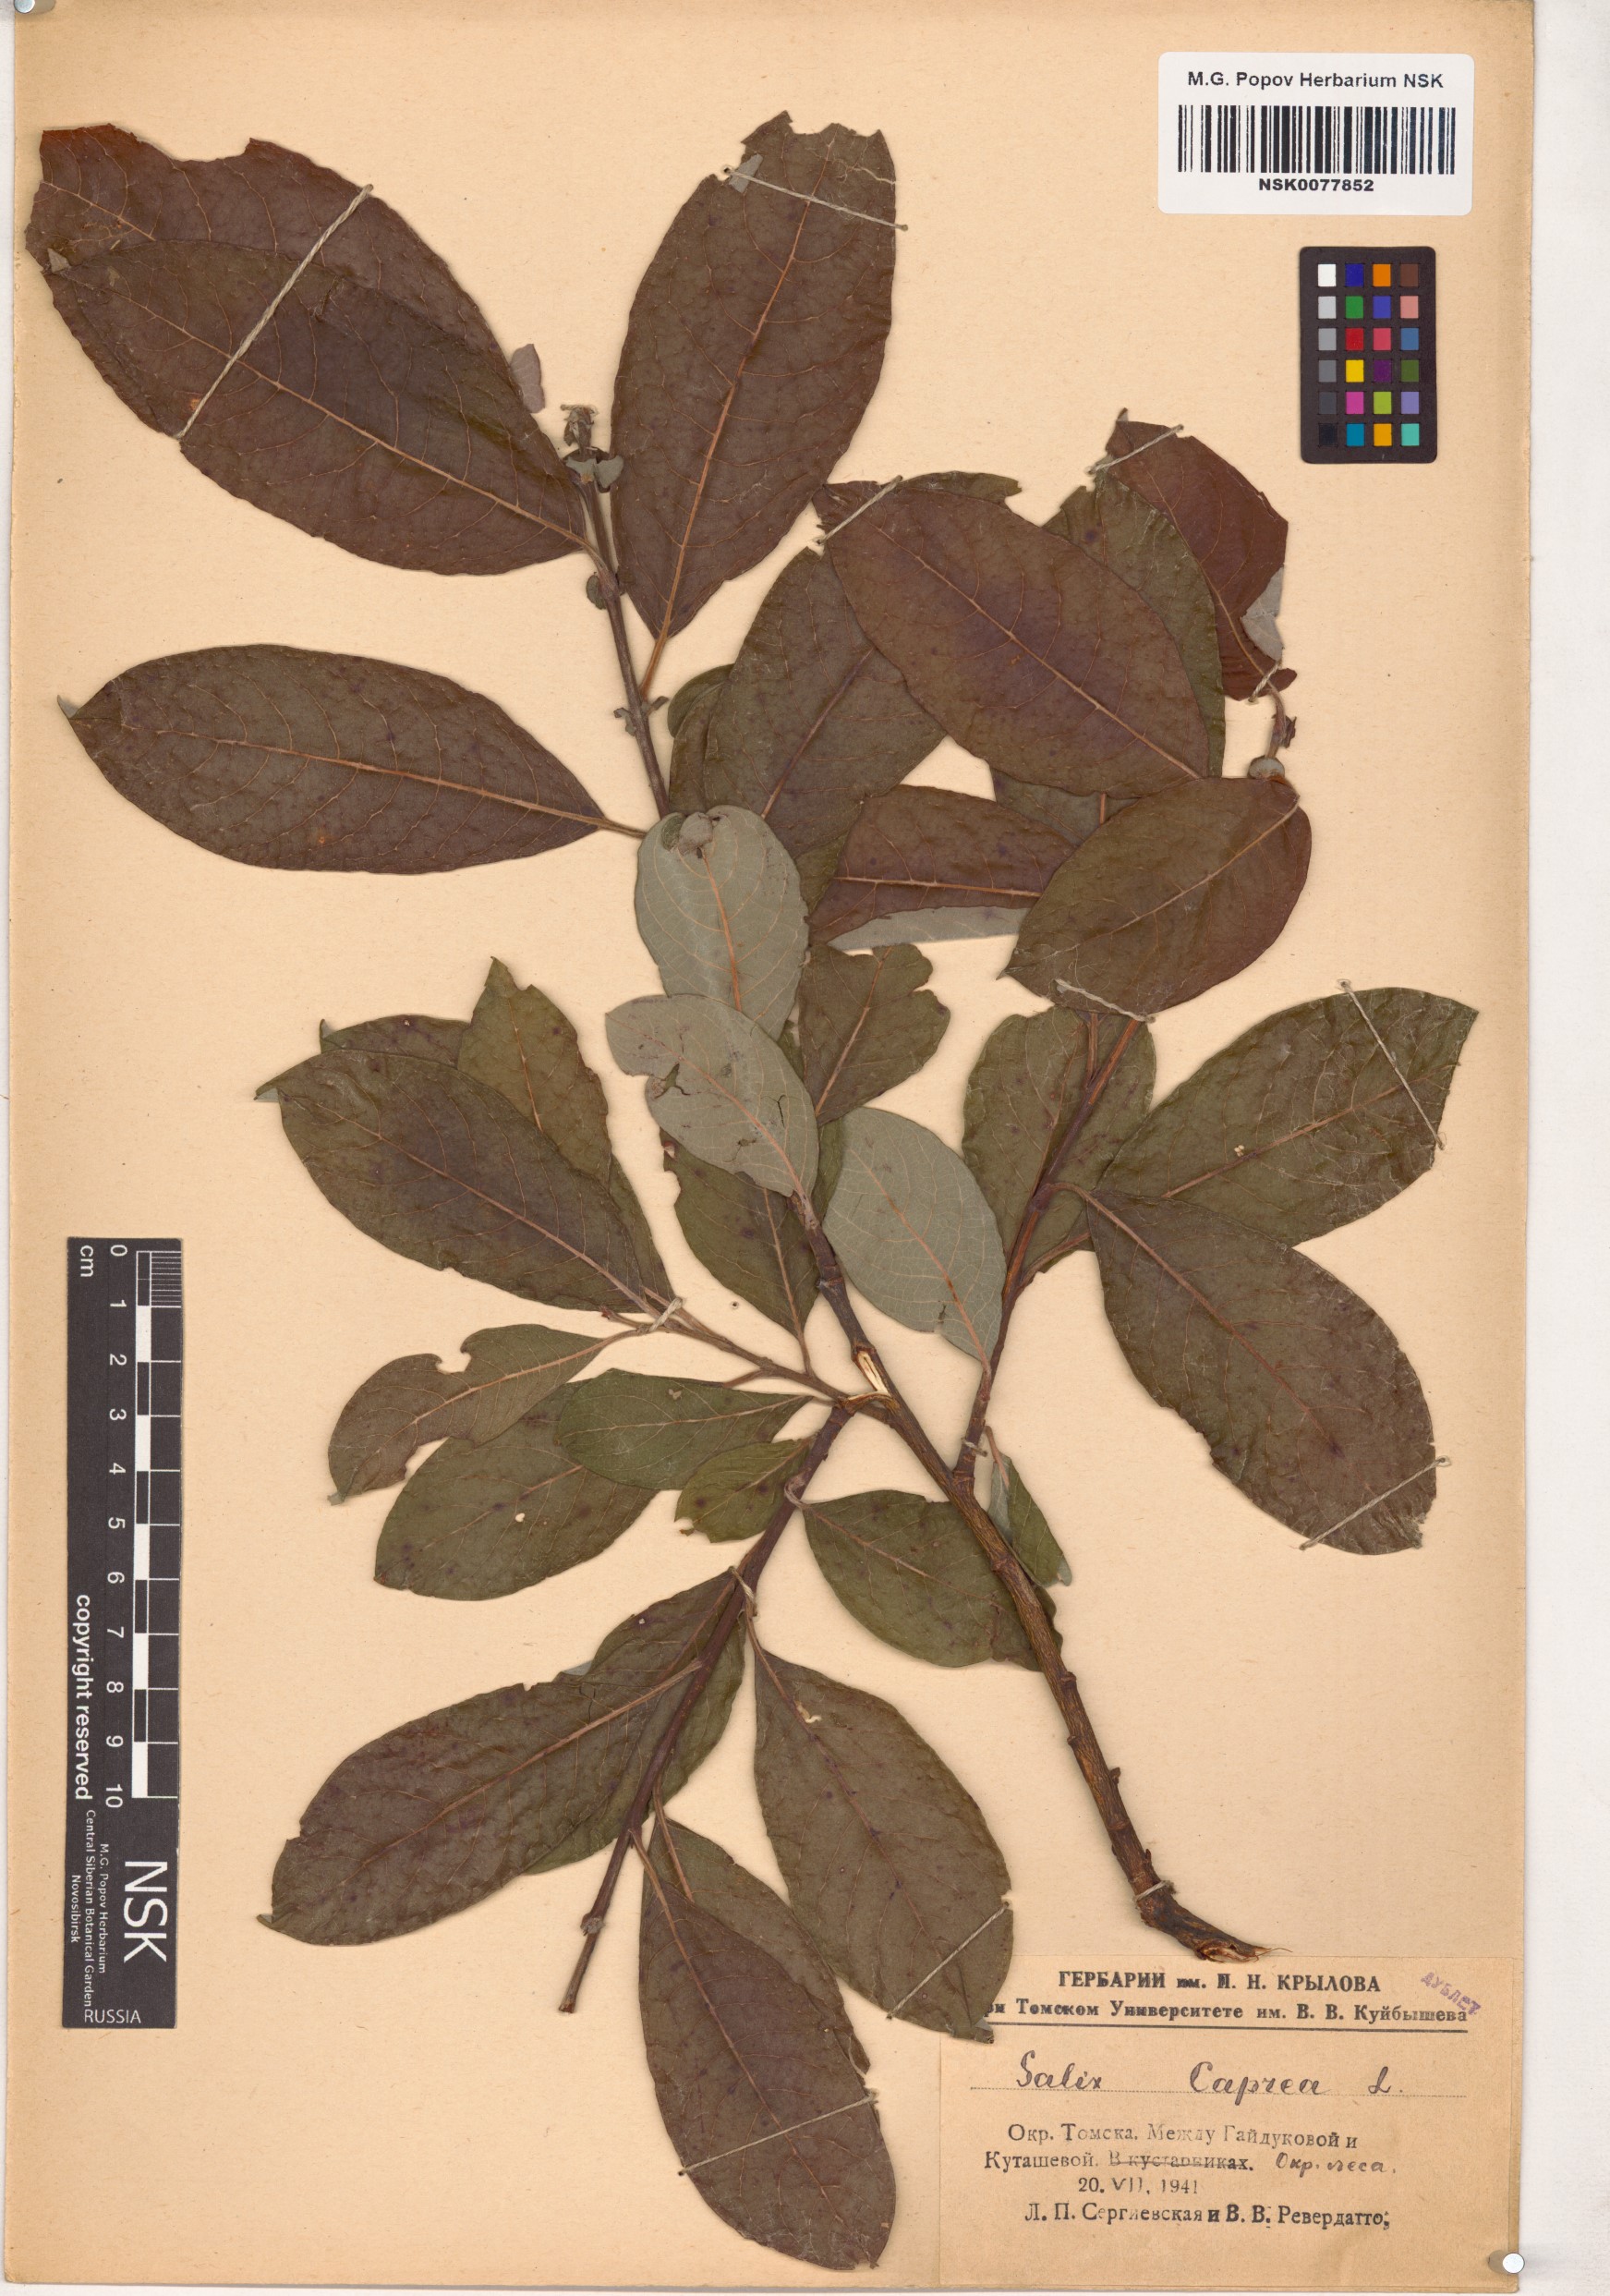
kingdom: Plantae
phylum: Tracheophyta
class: Magnoliopsida
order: Malpighiales
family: Salicaceae
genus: Salix
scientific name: Salix caprea
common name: Goat willow
